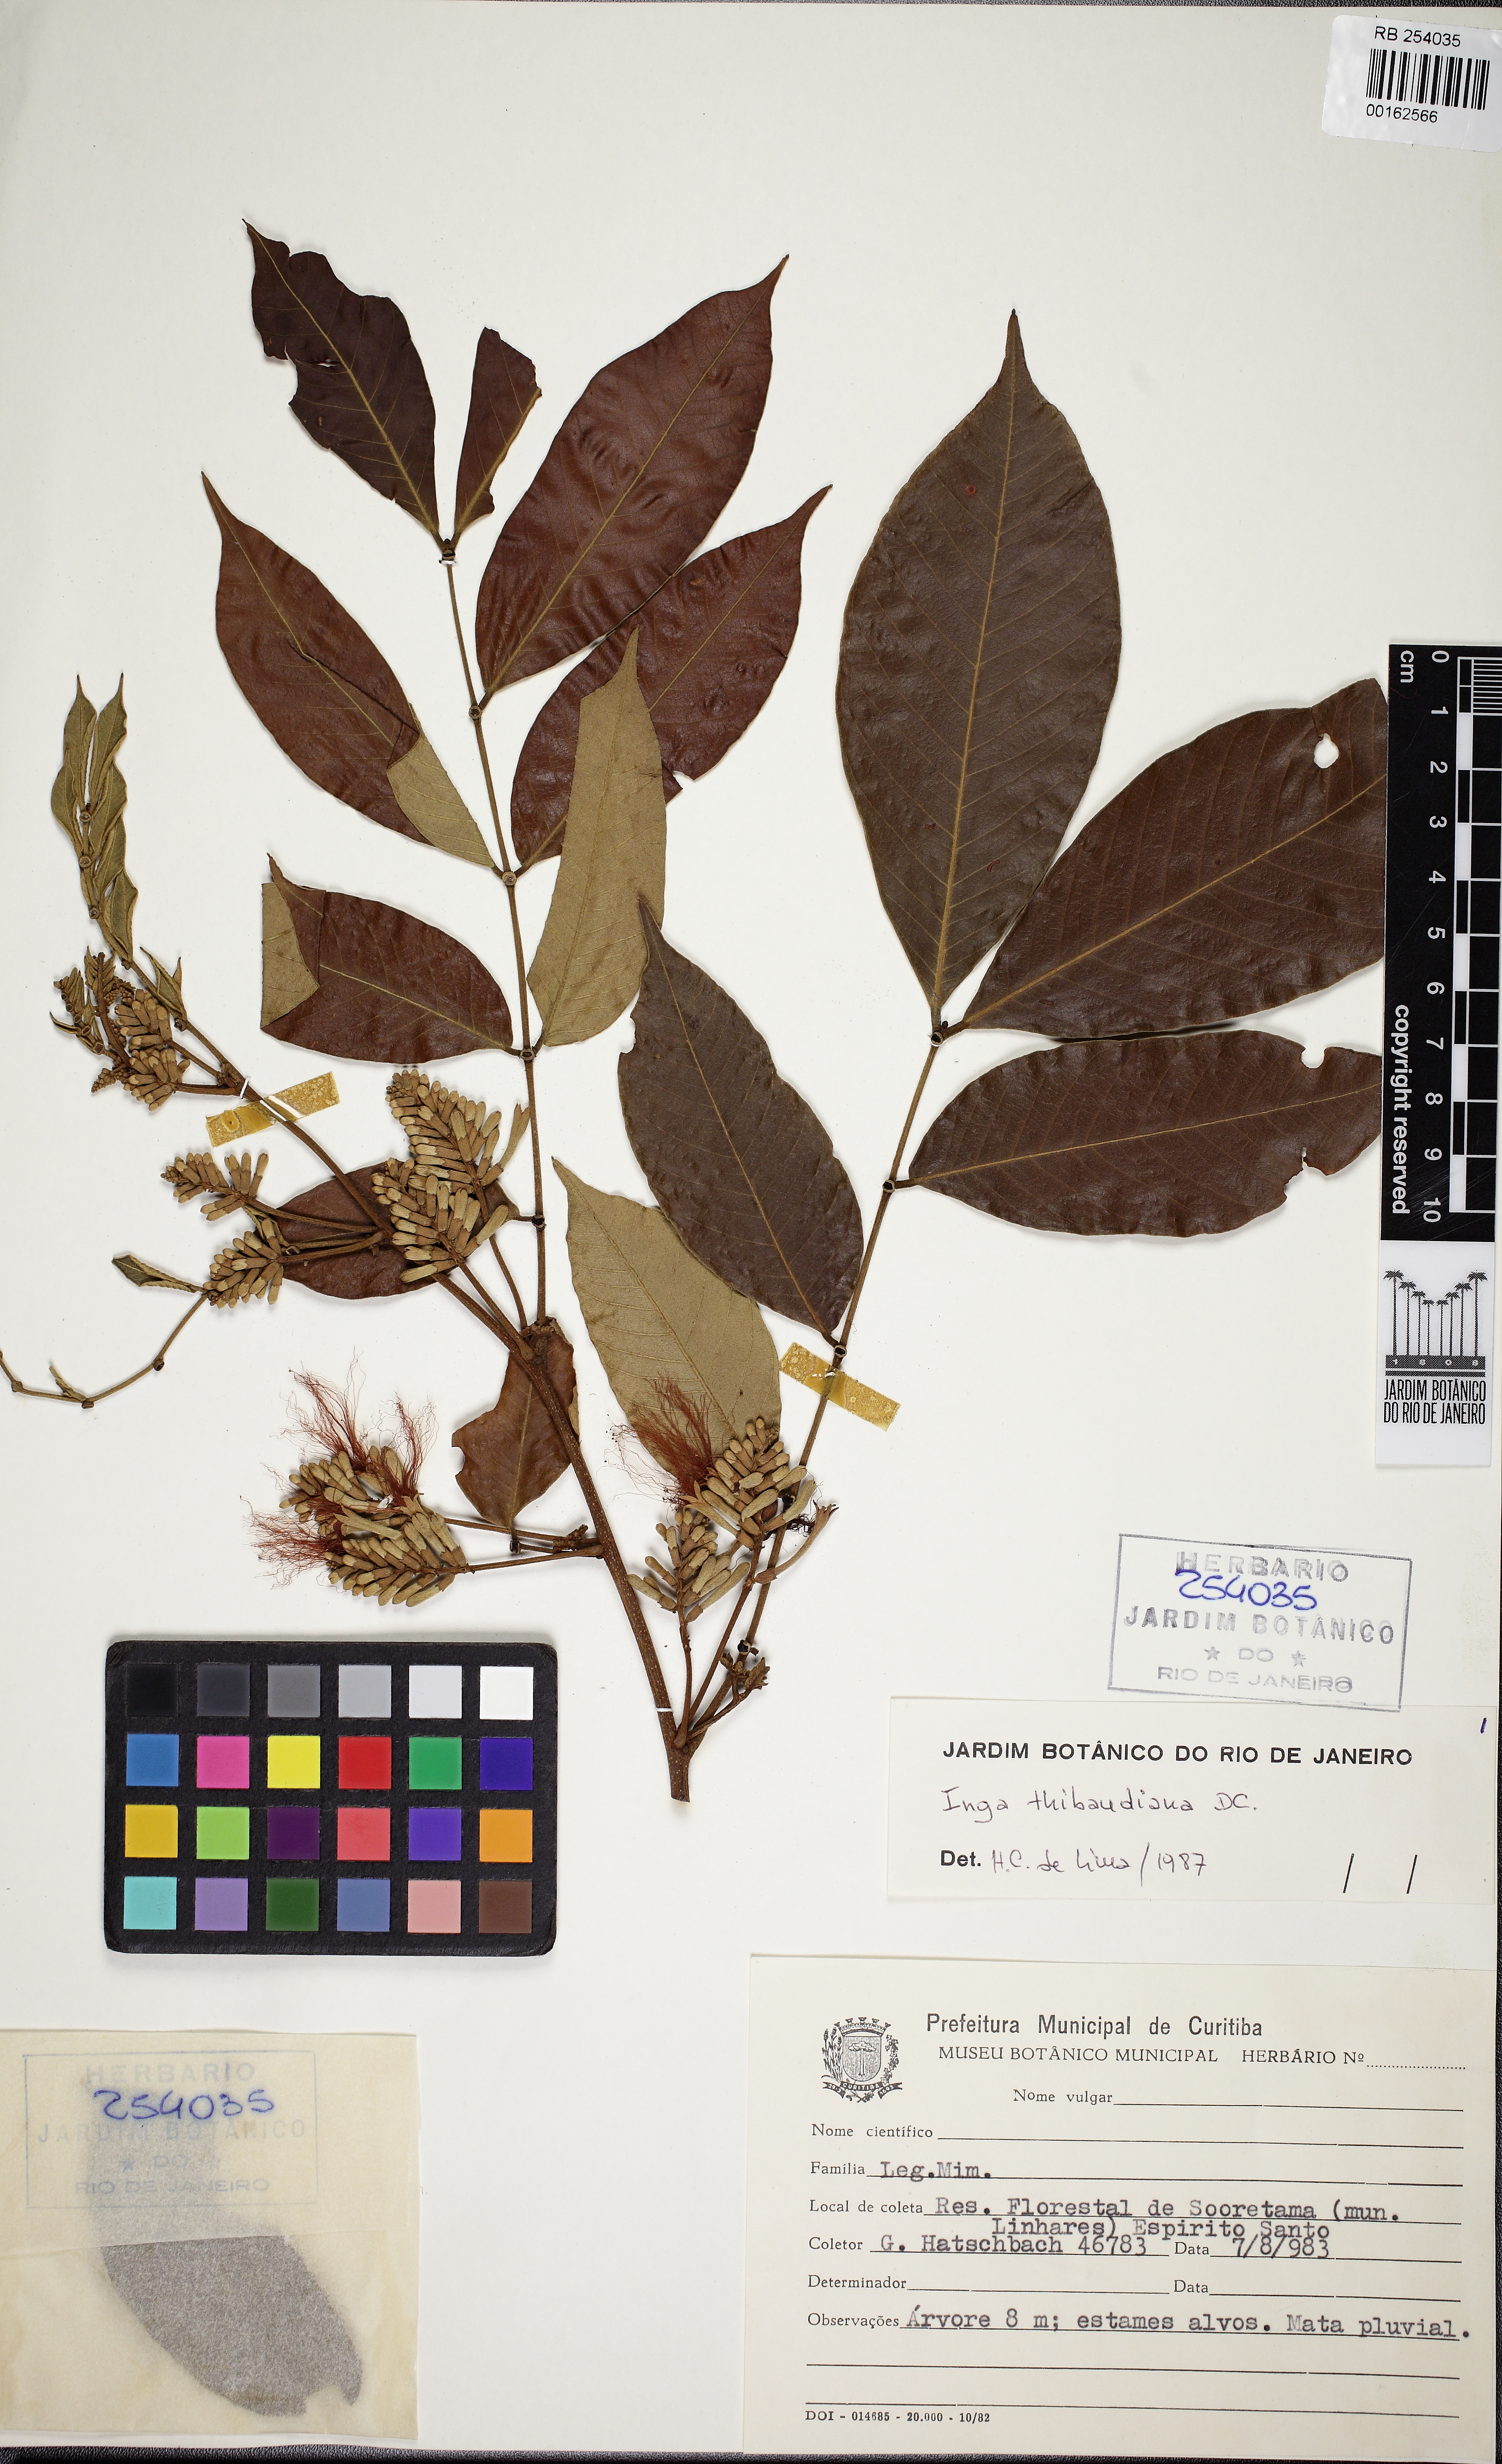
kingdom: Plantae
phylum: Tracheophyta
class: Magnoliopsida
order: Fabales
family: Fabaceae
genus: Inga
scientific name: Inga thibaudiana
